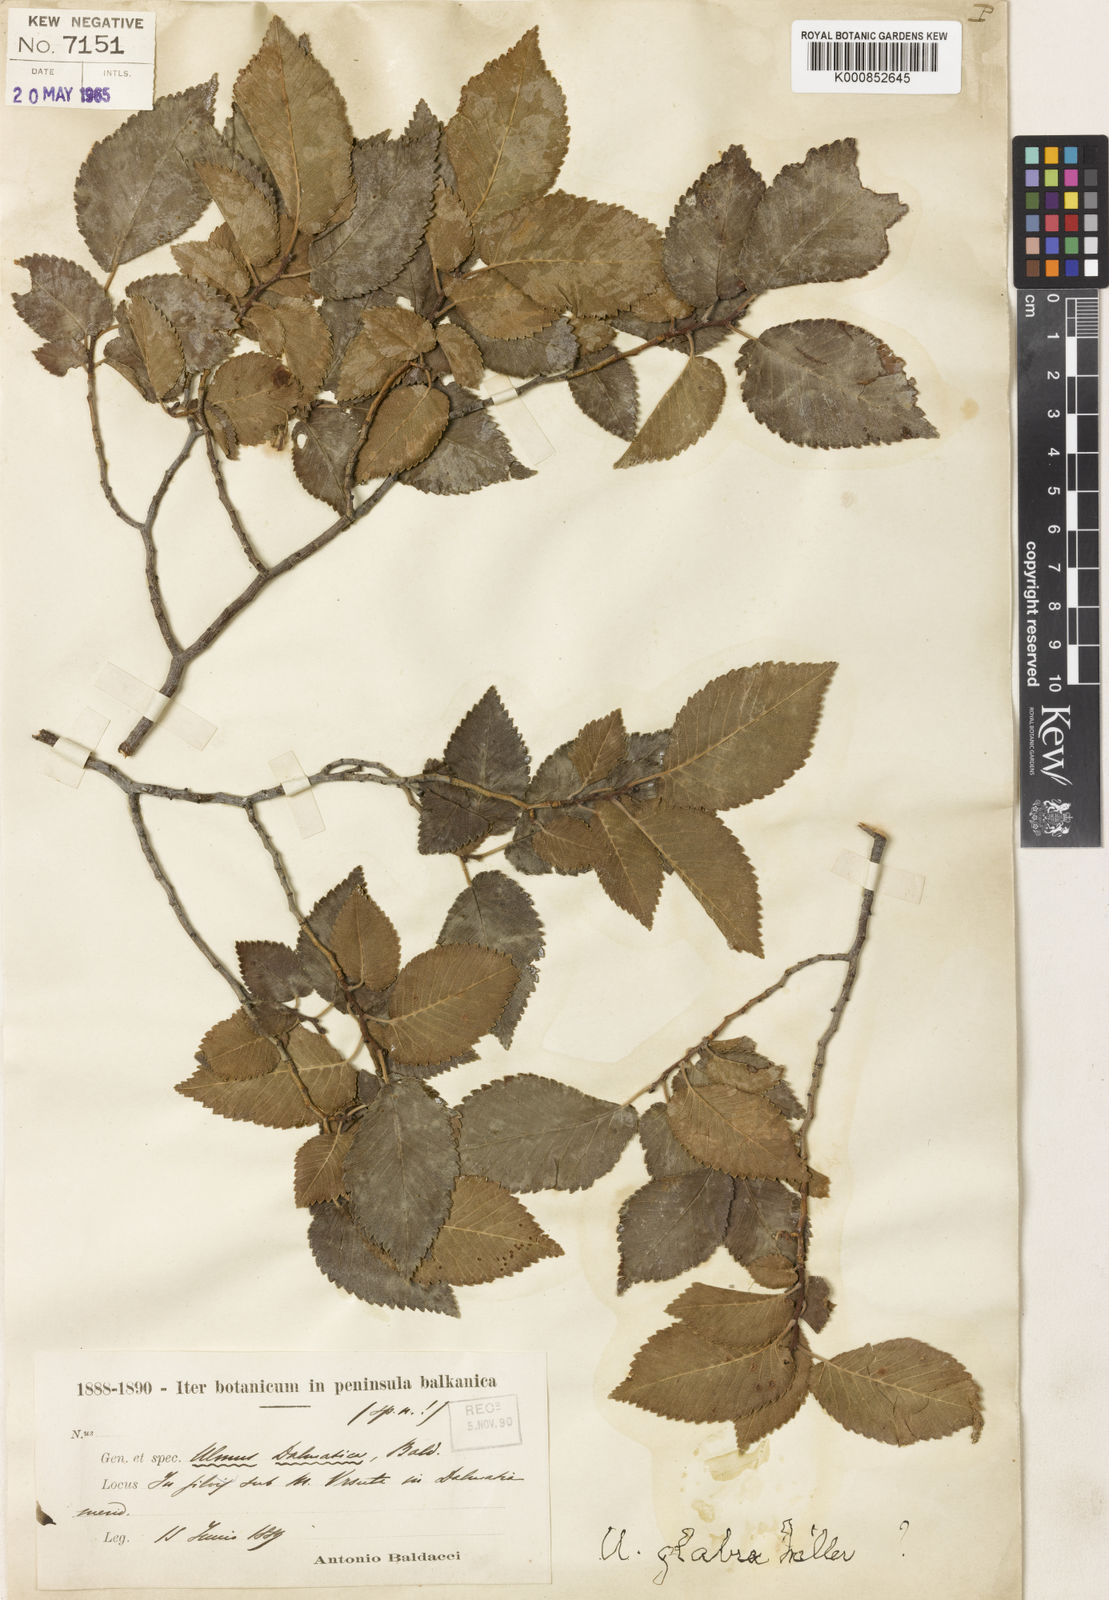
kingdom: Plantae
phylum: Tracheophyta
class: Magnoliopsida
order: Rosales
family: Ulmaceae
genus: Ulmus
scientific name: Ulmus minor
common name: Small-leaved elm
